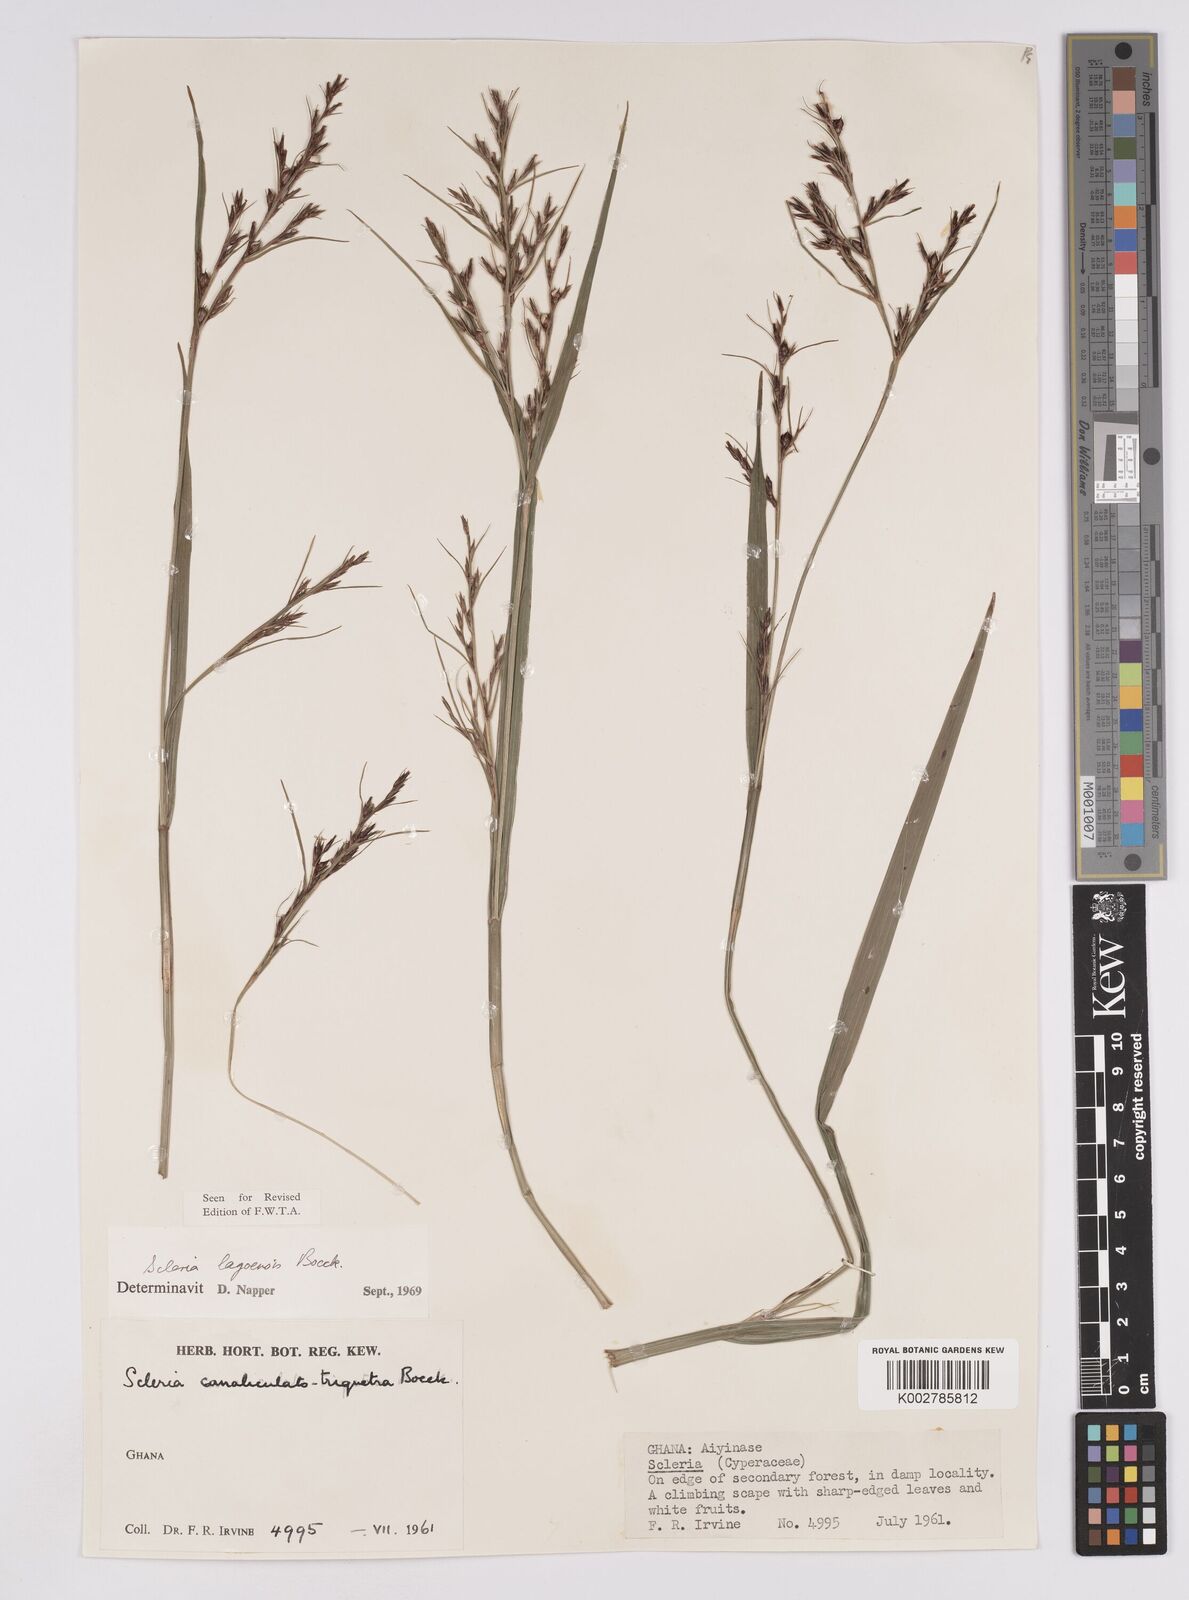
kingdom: Plantae
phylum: Tracheophyta
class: Liliopsida
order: Poales
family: Cyperaceae
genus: Scleria
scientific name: Scleria lagoensis
